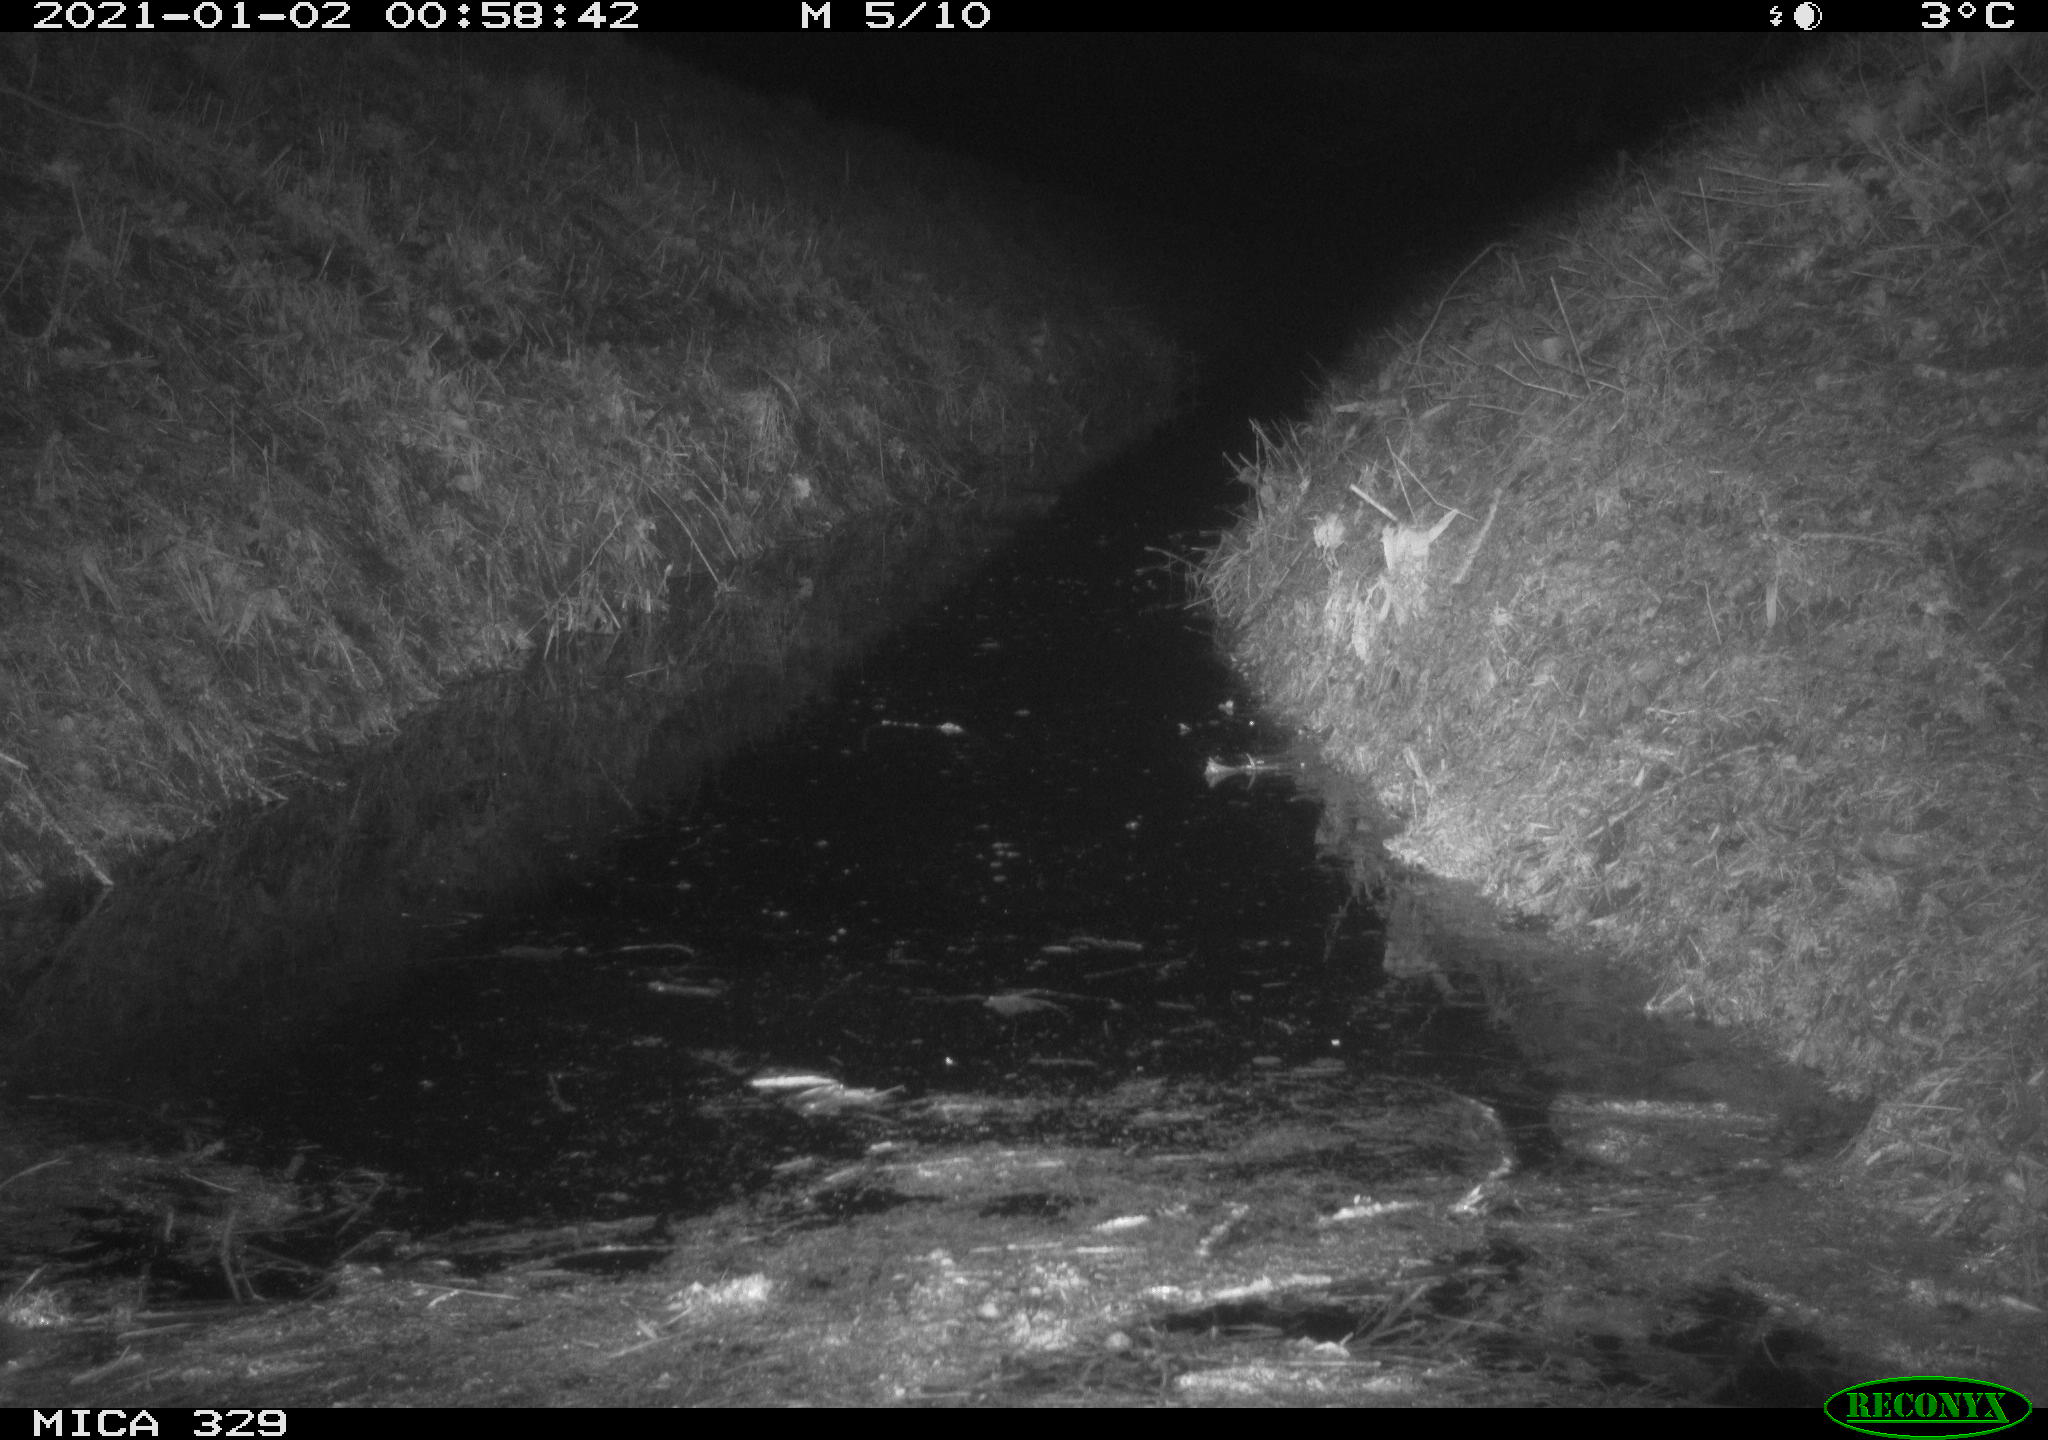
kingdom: Animalia
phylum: Chordata
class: Mammalia
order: Rodentia
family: Muridae
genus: Rattus
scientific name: Rattus norvegicus
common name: Brown rat
